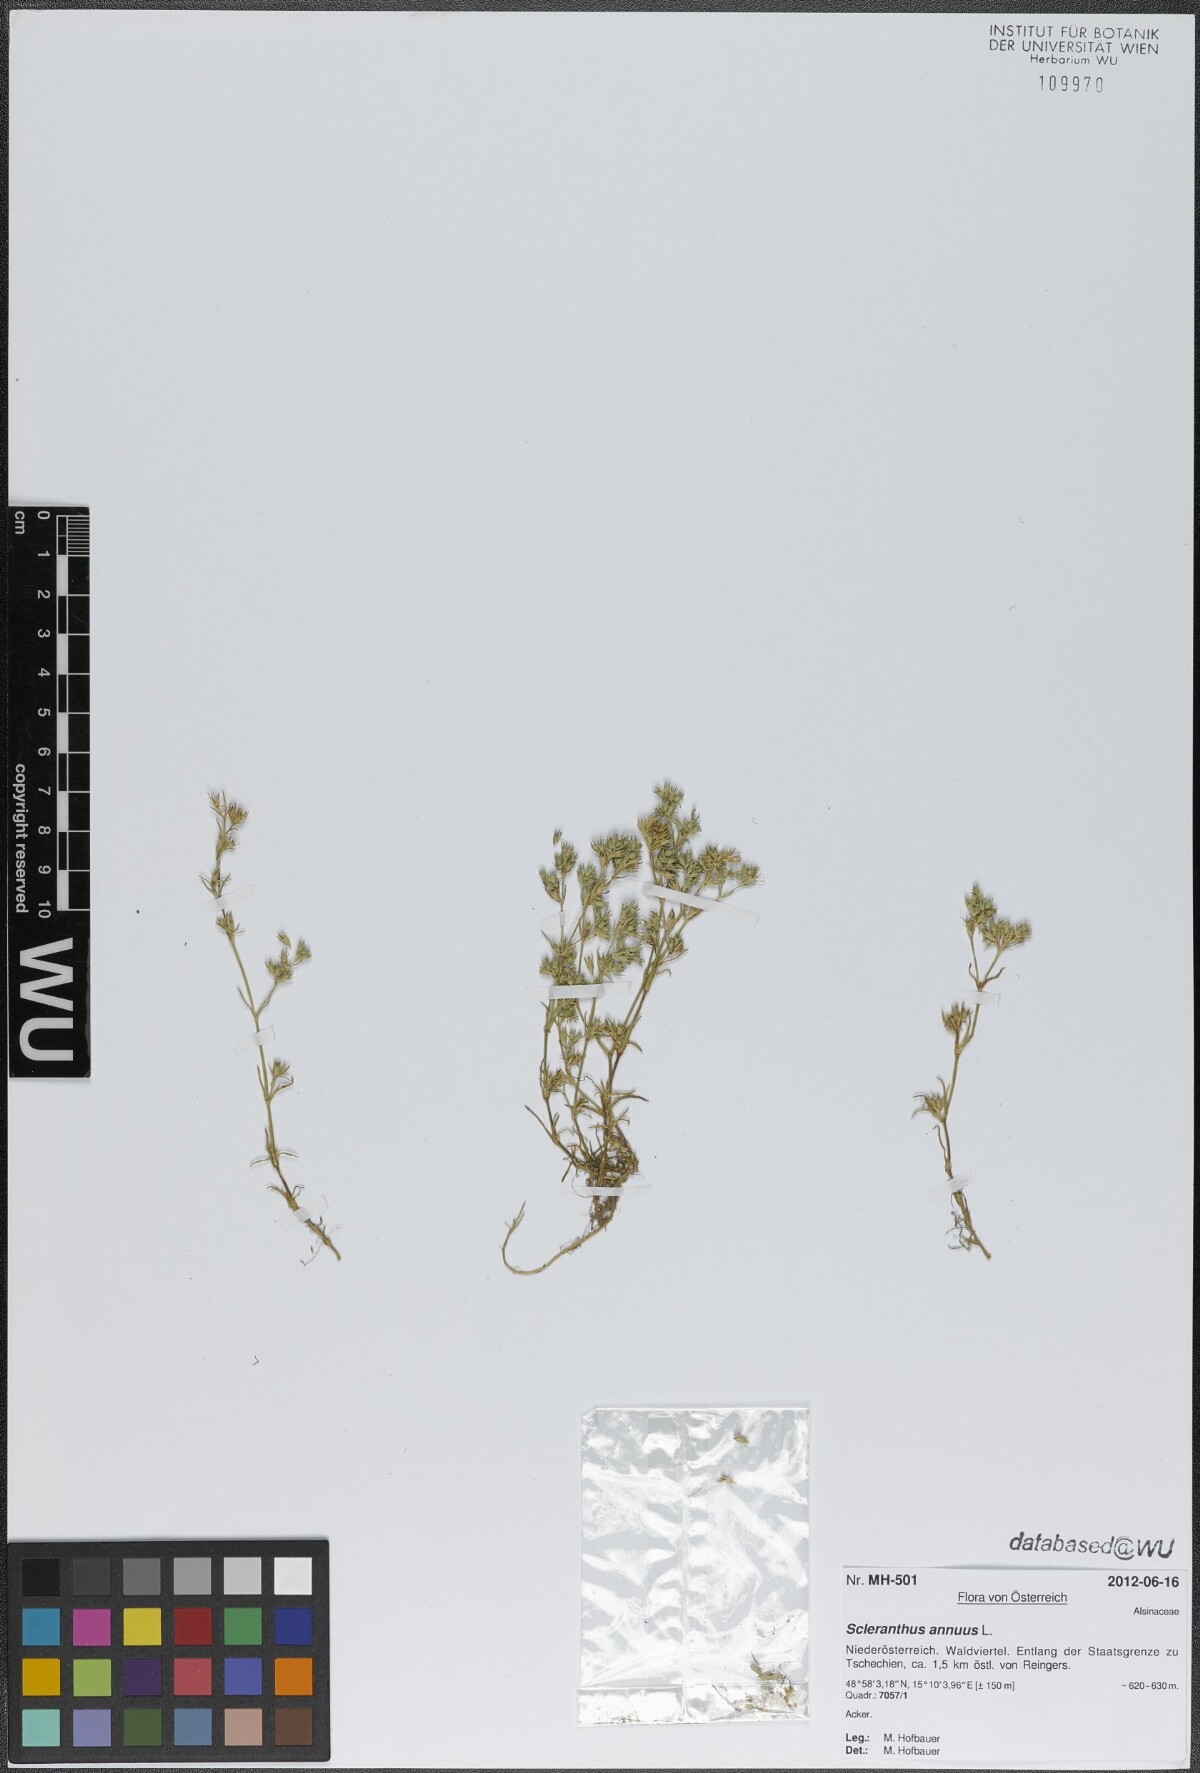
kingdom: Plantae
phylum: Tracheophyta
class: Magnoliopsida
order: Caryophyllales
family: Caryophyllaceae
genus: Scleranthus
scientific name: Scleranthus annuus
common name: Annual knawel
